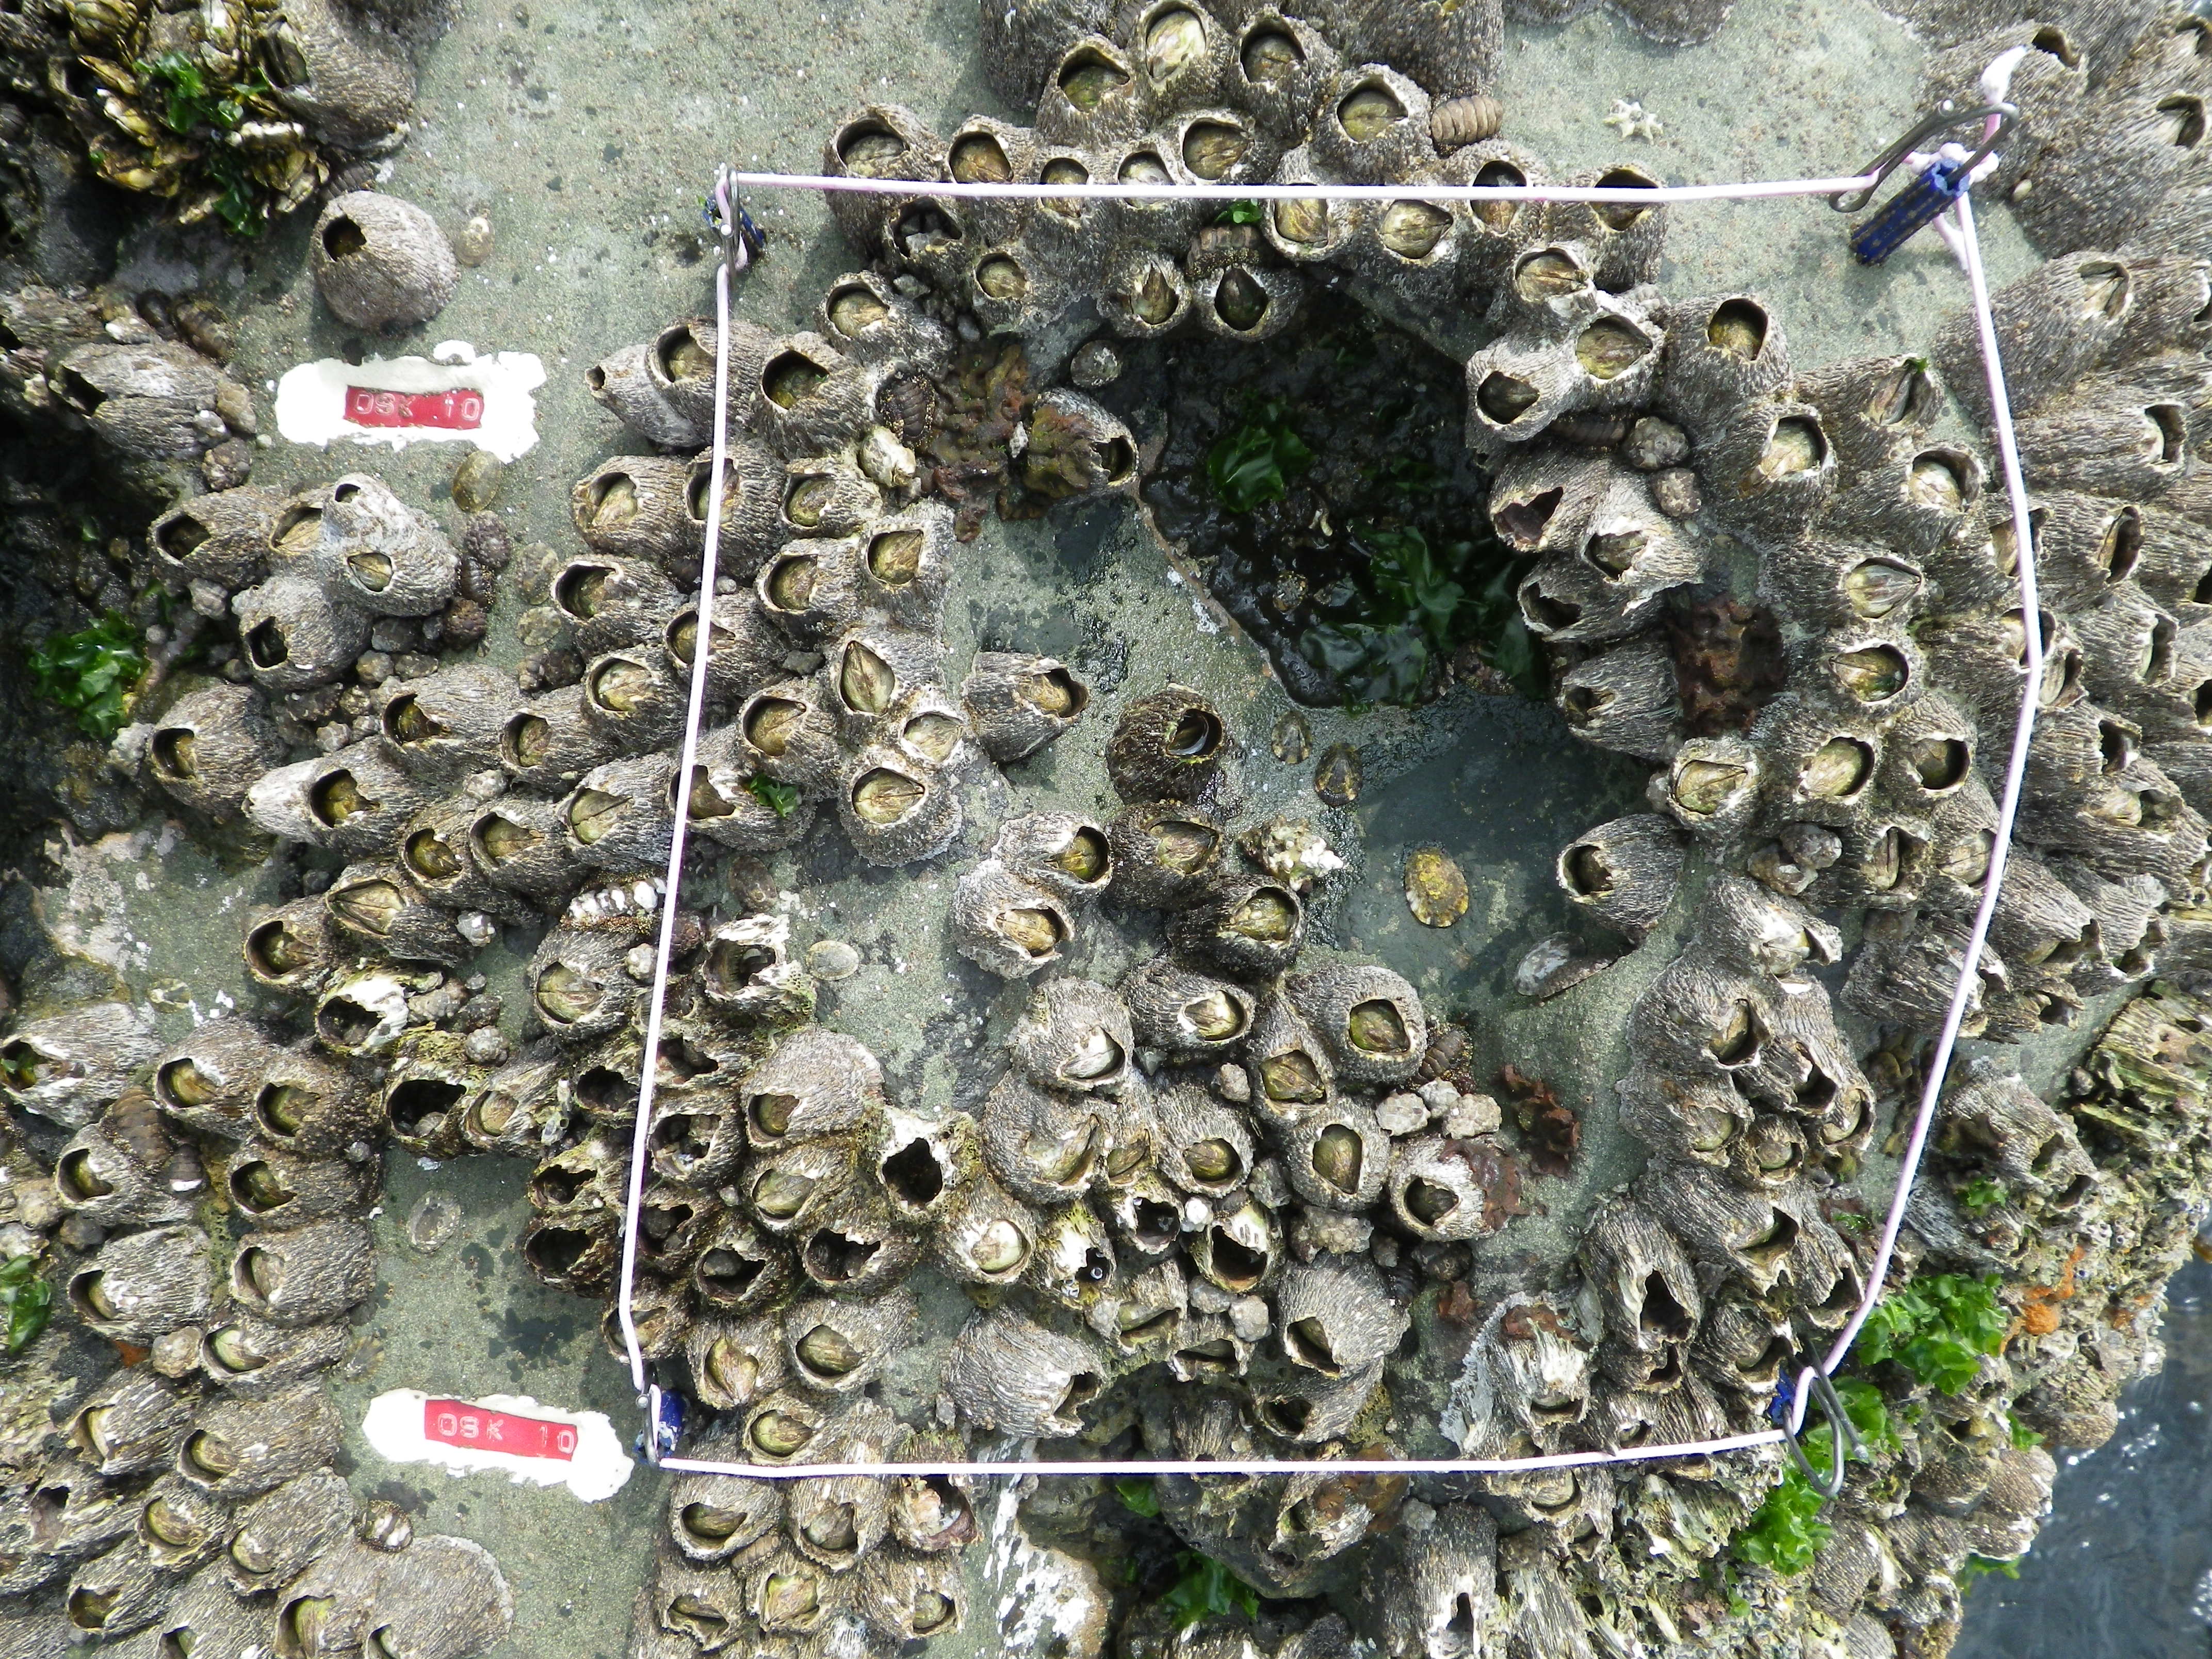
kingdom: Animalia
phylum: Arthropoda
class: Maxillopoda
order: Sessilia
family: Chthamalidae
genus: Chthamalus
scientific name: Chthamalus challengeri
